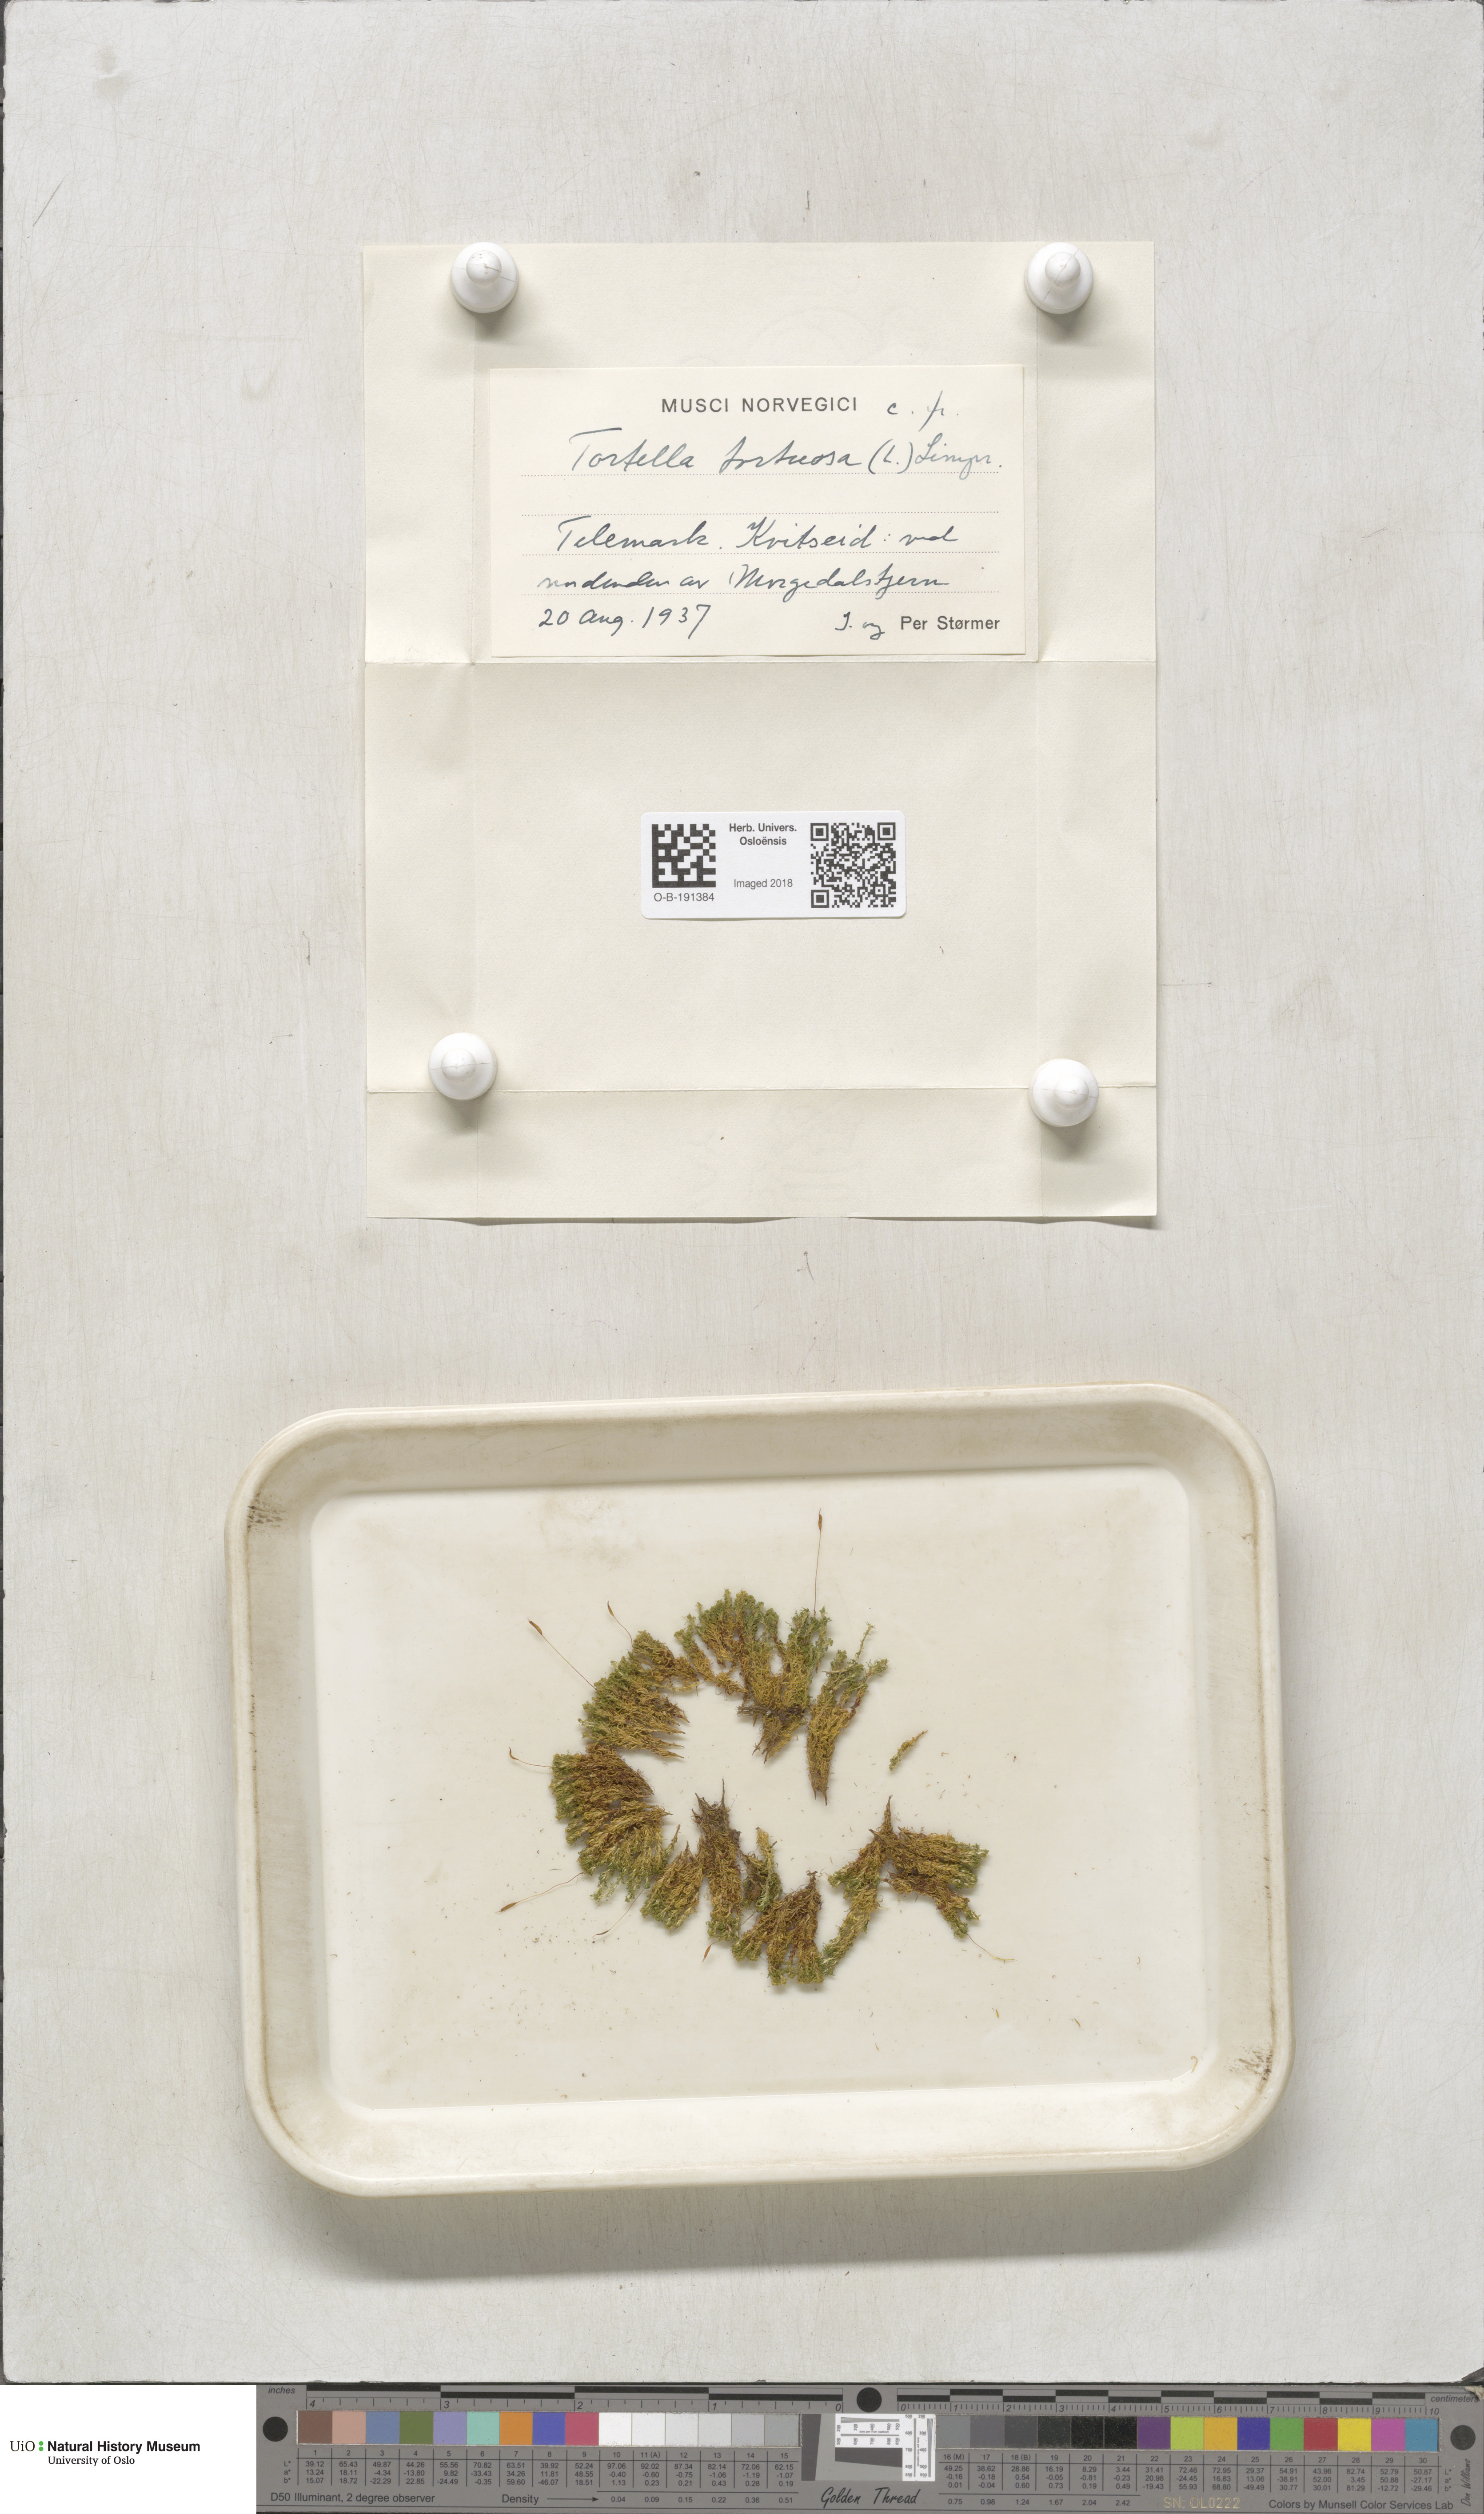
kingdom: Plantae
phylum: Bryophyta
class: Bryopsida
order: Pottiales
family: Pottiaceae
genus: Tortella
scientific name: Tortella tortuosa
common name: Frizzled crisp moss
